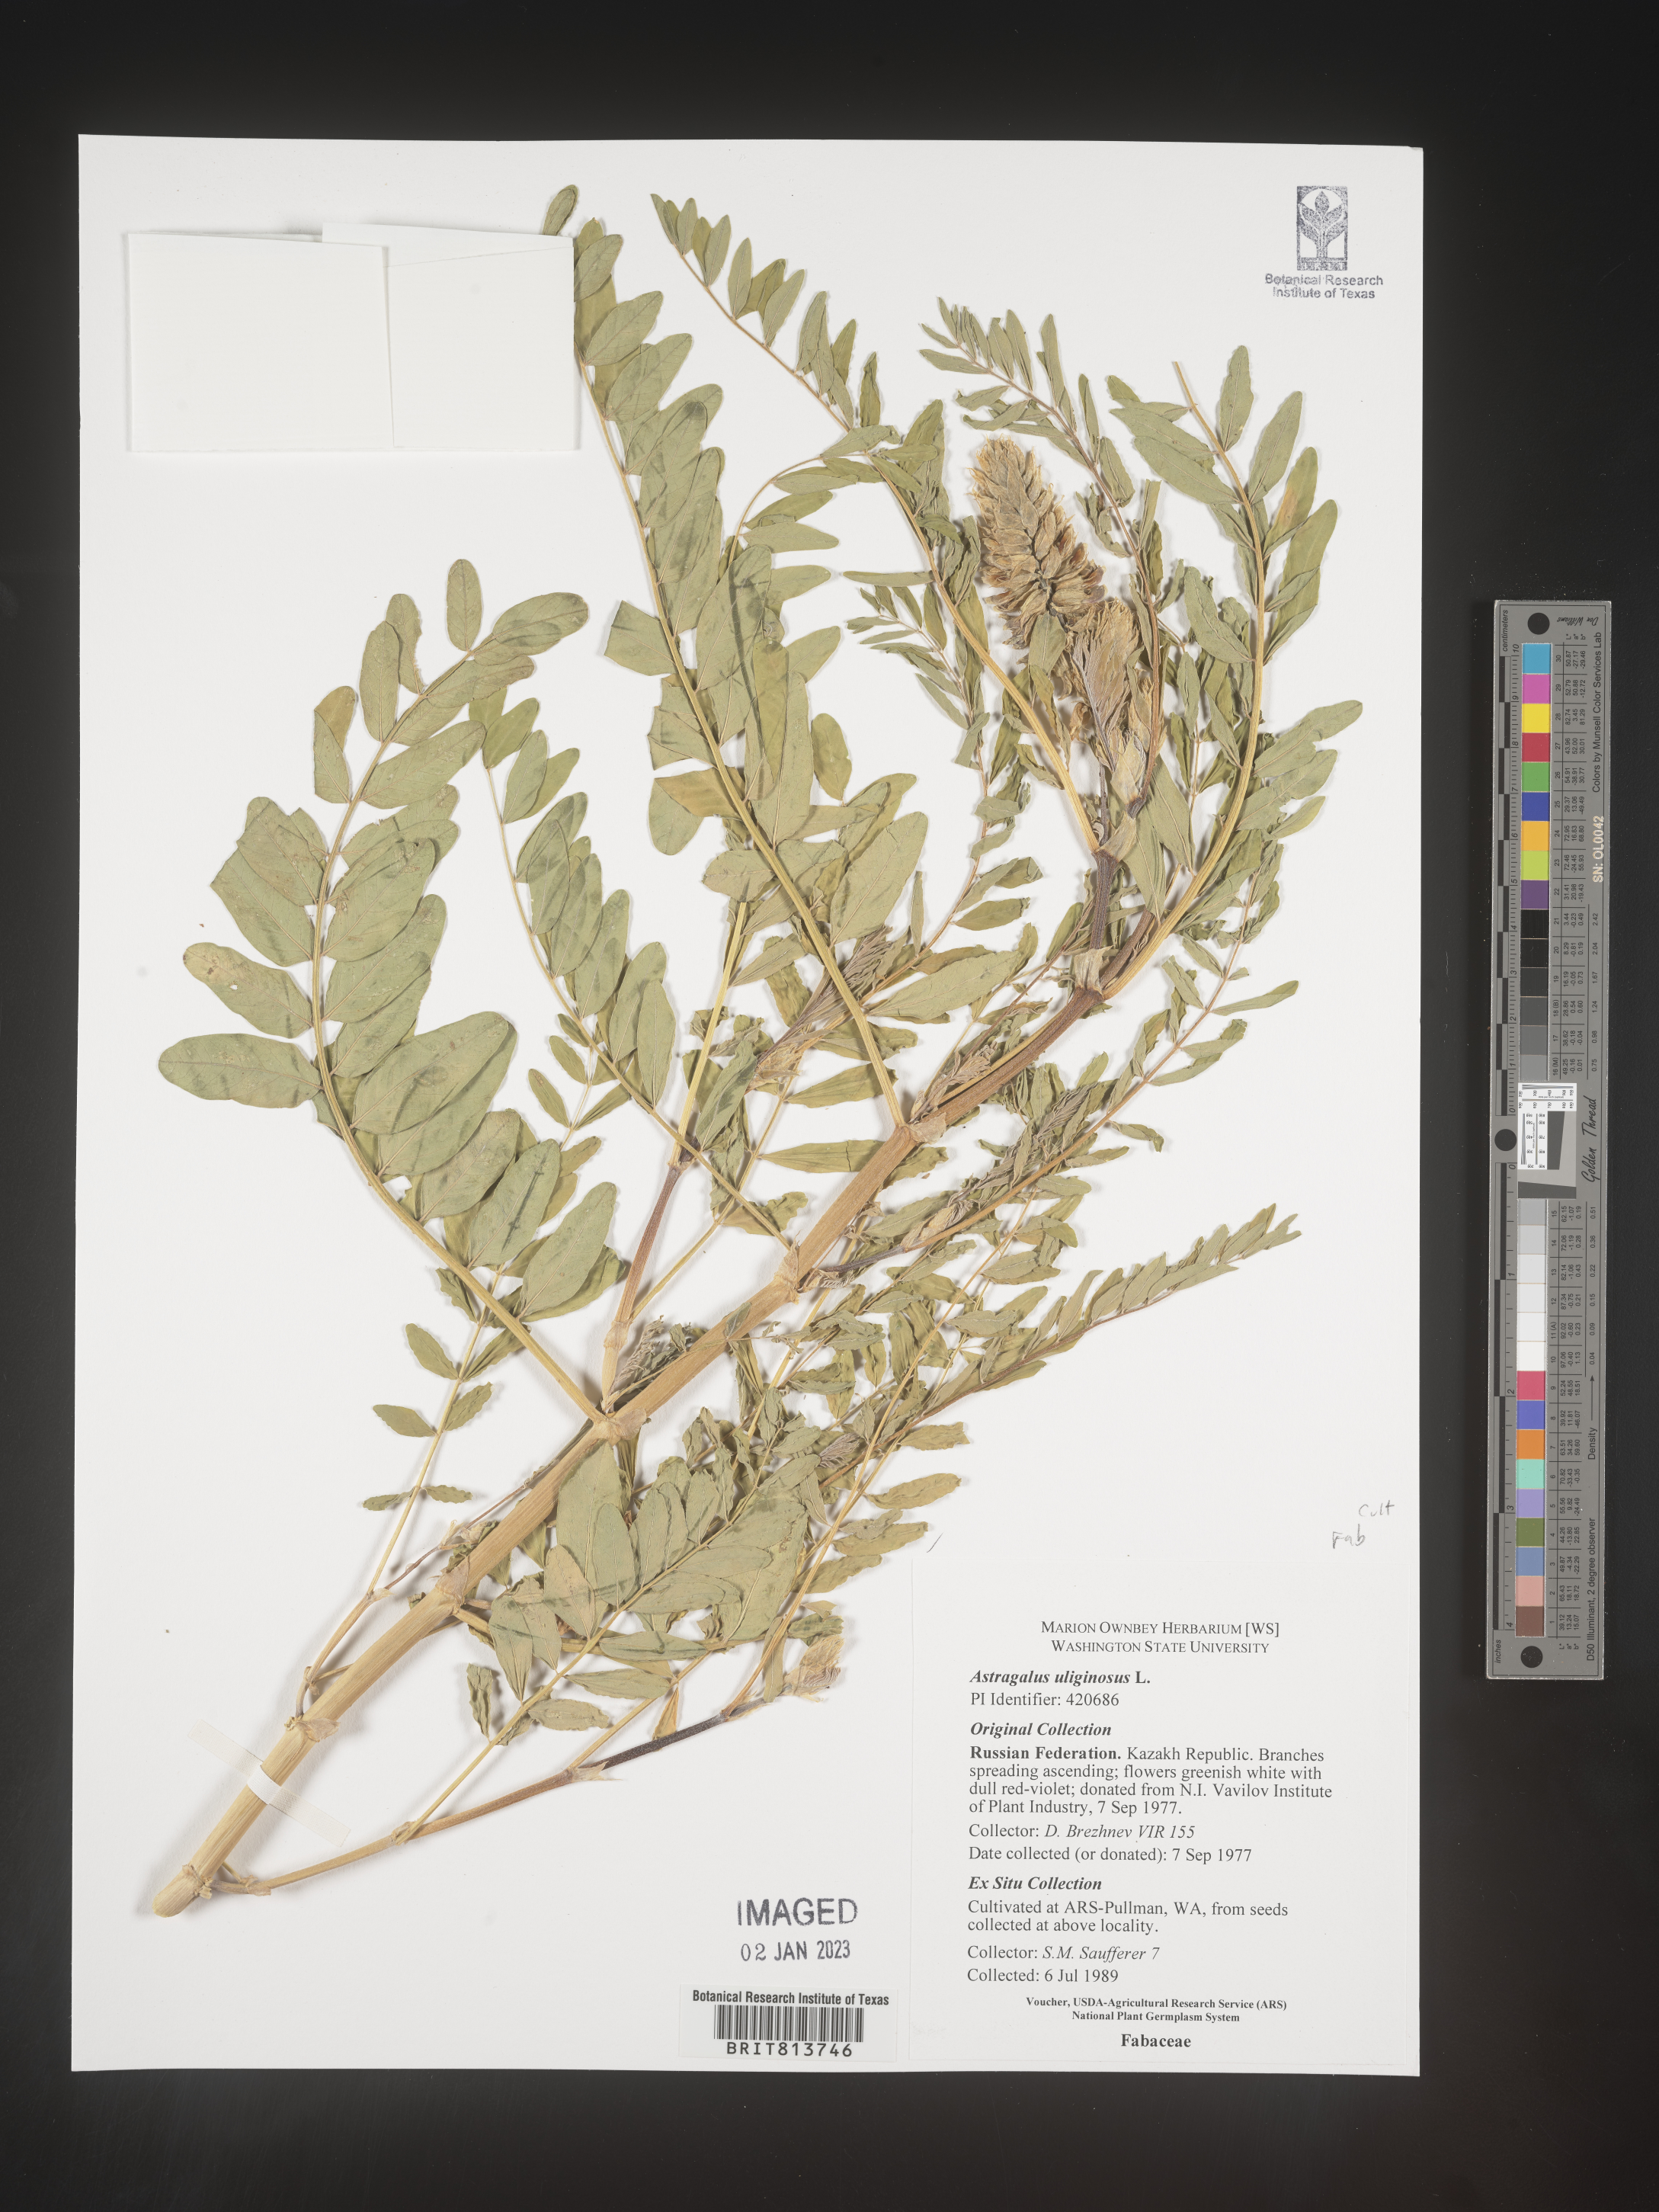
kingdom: Plantae
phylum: Tracheophyta
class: Magnoliopsida
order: Fabales
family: Fabaceae
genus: Astragalus
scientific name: Astragalus
